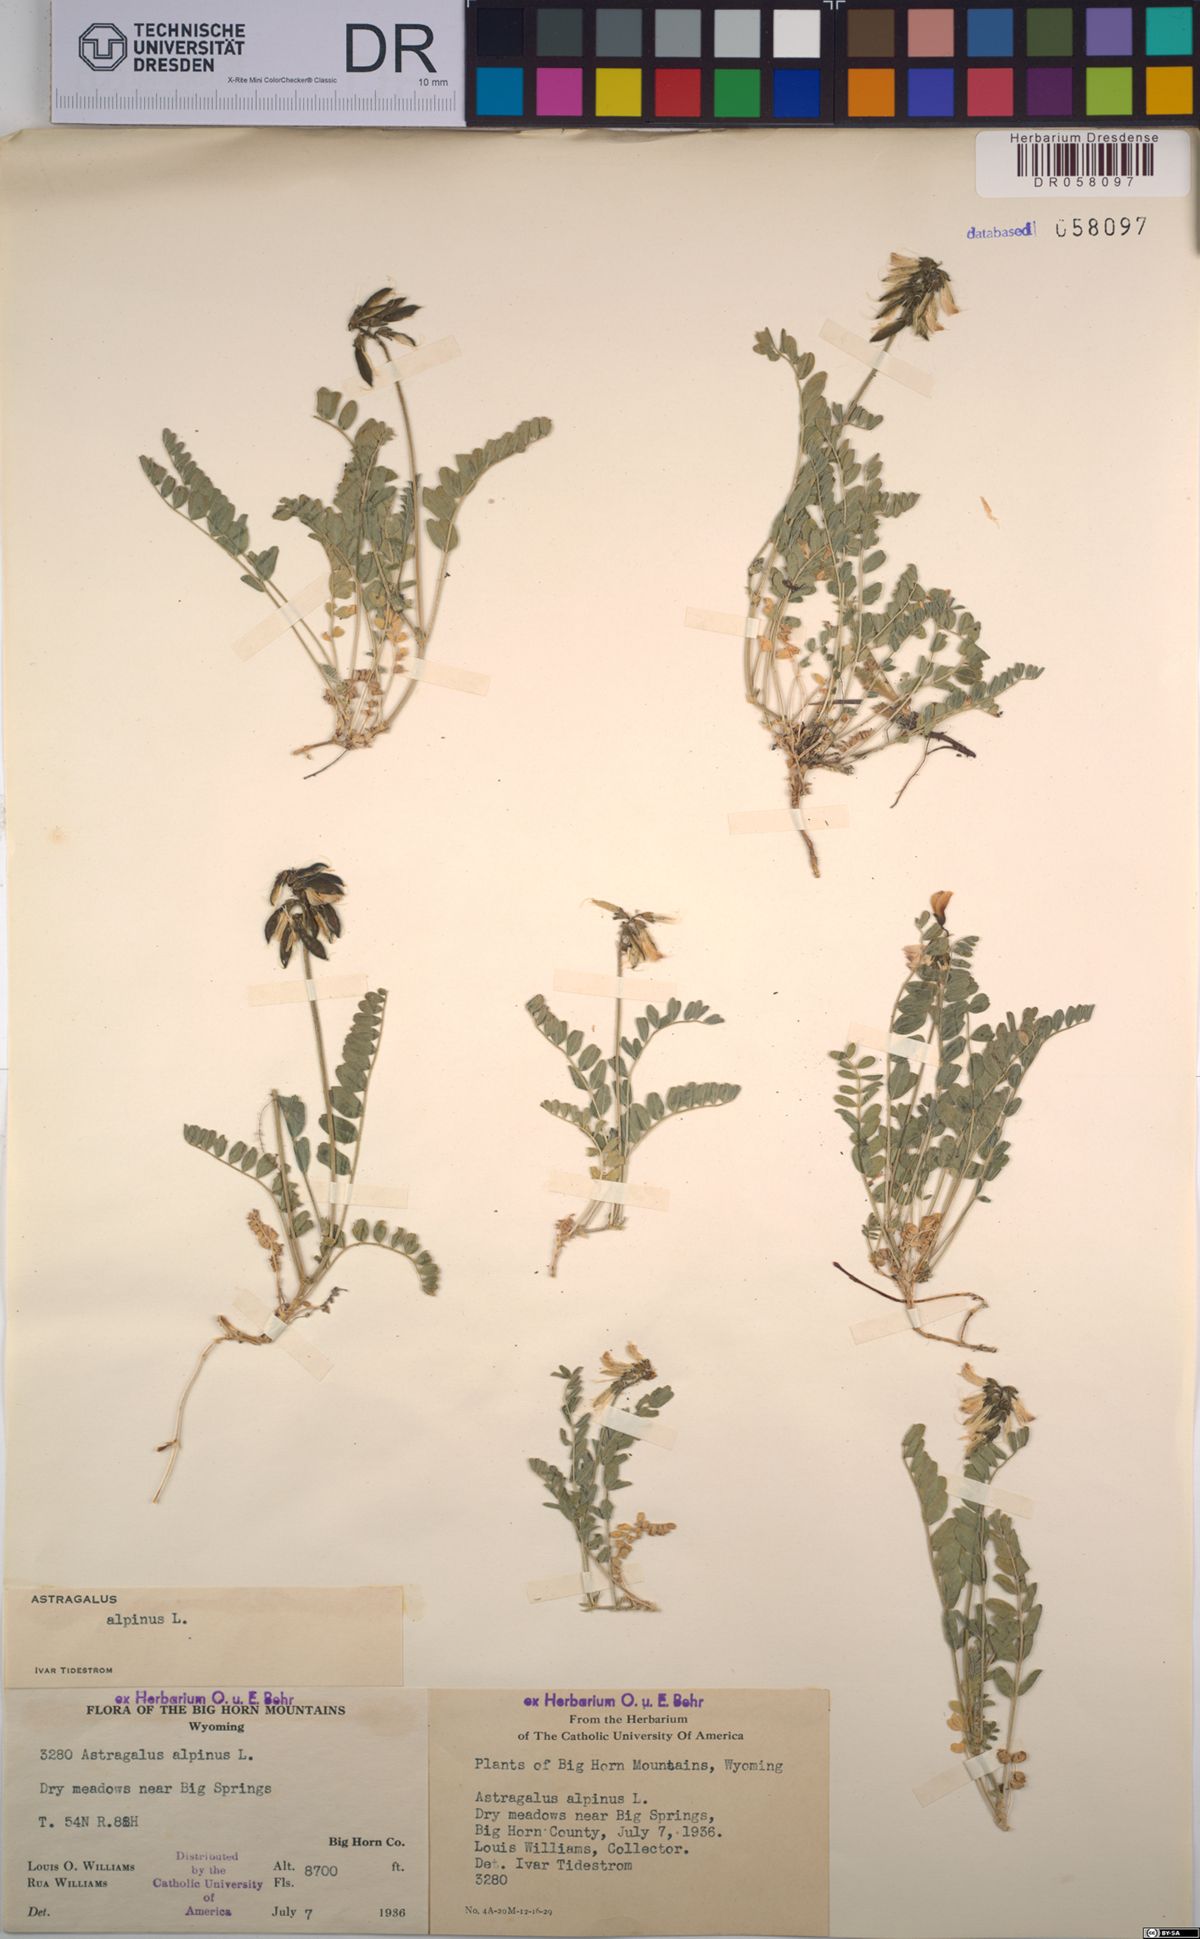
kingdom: Plantae
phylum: Tracheophyta
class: Magnoliopsida
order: Fabales
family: Fabaceae
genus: Astragalus
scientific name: Astragalus alpinus
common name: Alpine milk-vetch
